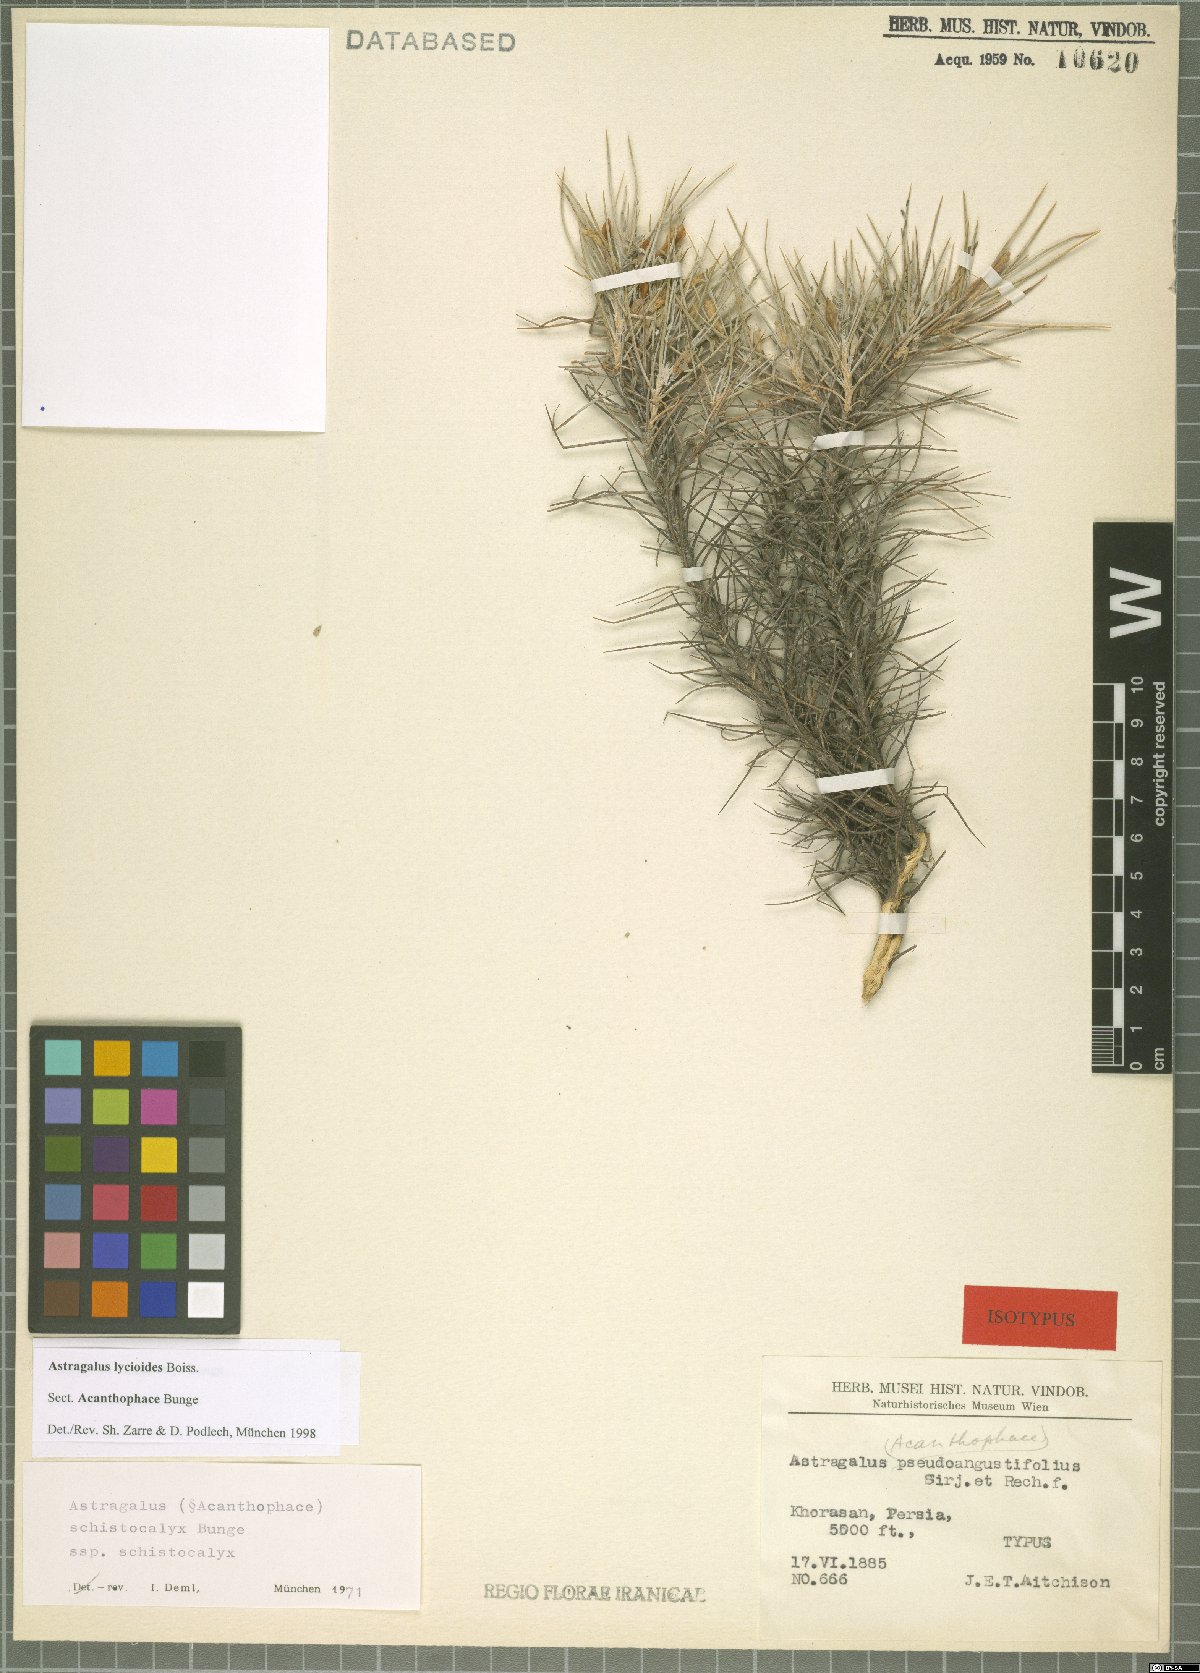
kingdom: Plantae
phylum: Tracheophyta
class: Magnoliopsida
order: Fabales
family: Fabaceae
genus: Astragalus
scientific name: Astragalus lycioides
